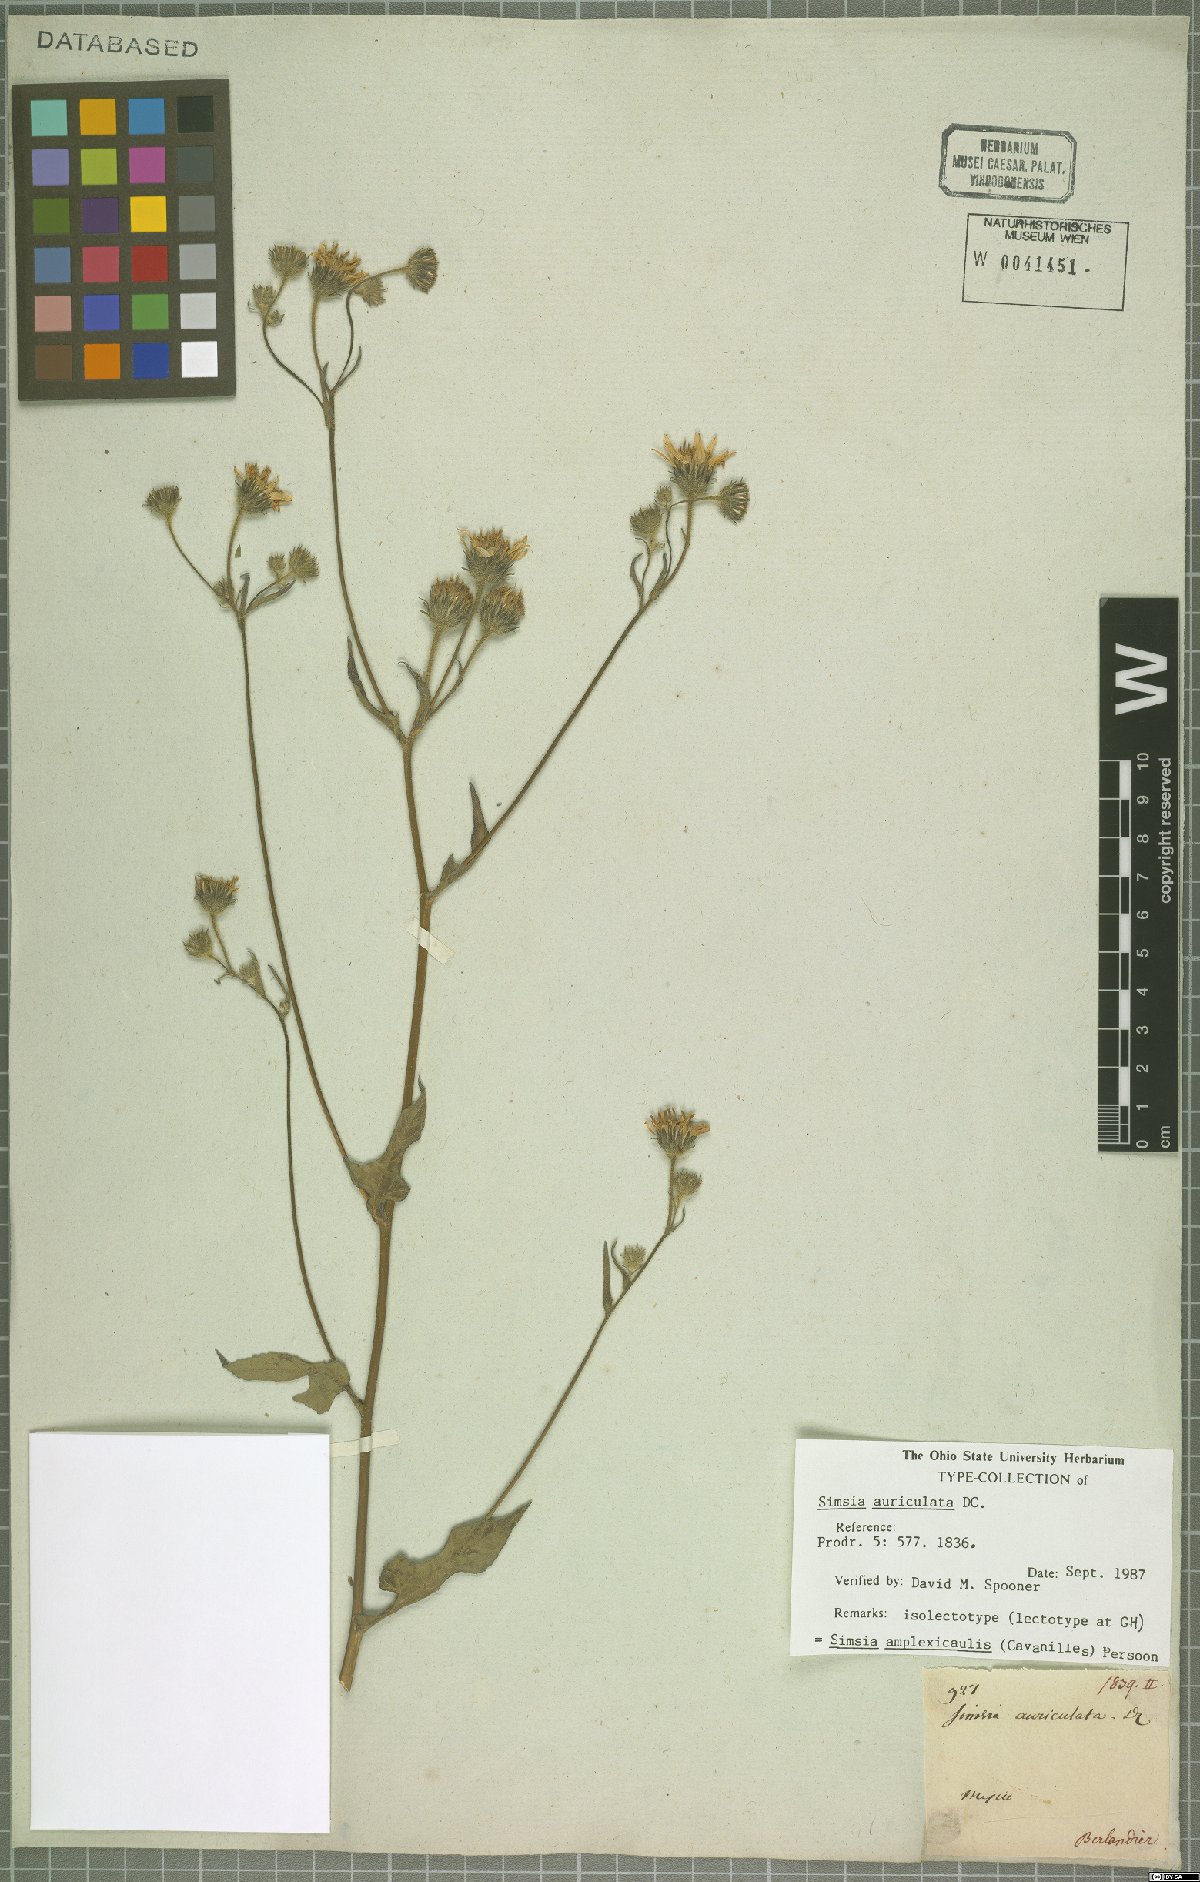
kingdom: Plantae
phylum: Tracheophyta
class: Magnoliopsida
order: Asterales
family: Asteraceae
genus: Simsia
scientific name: Simsia amplexicaulis
